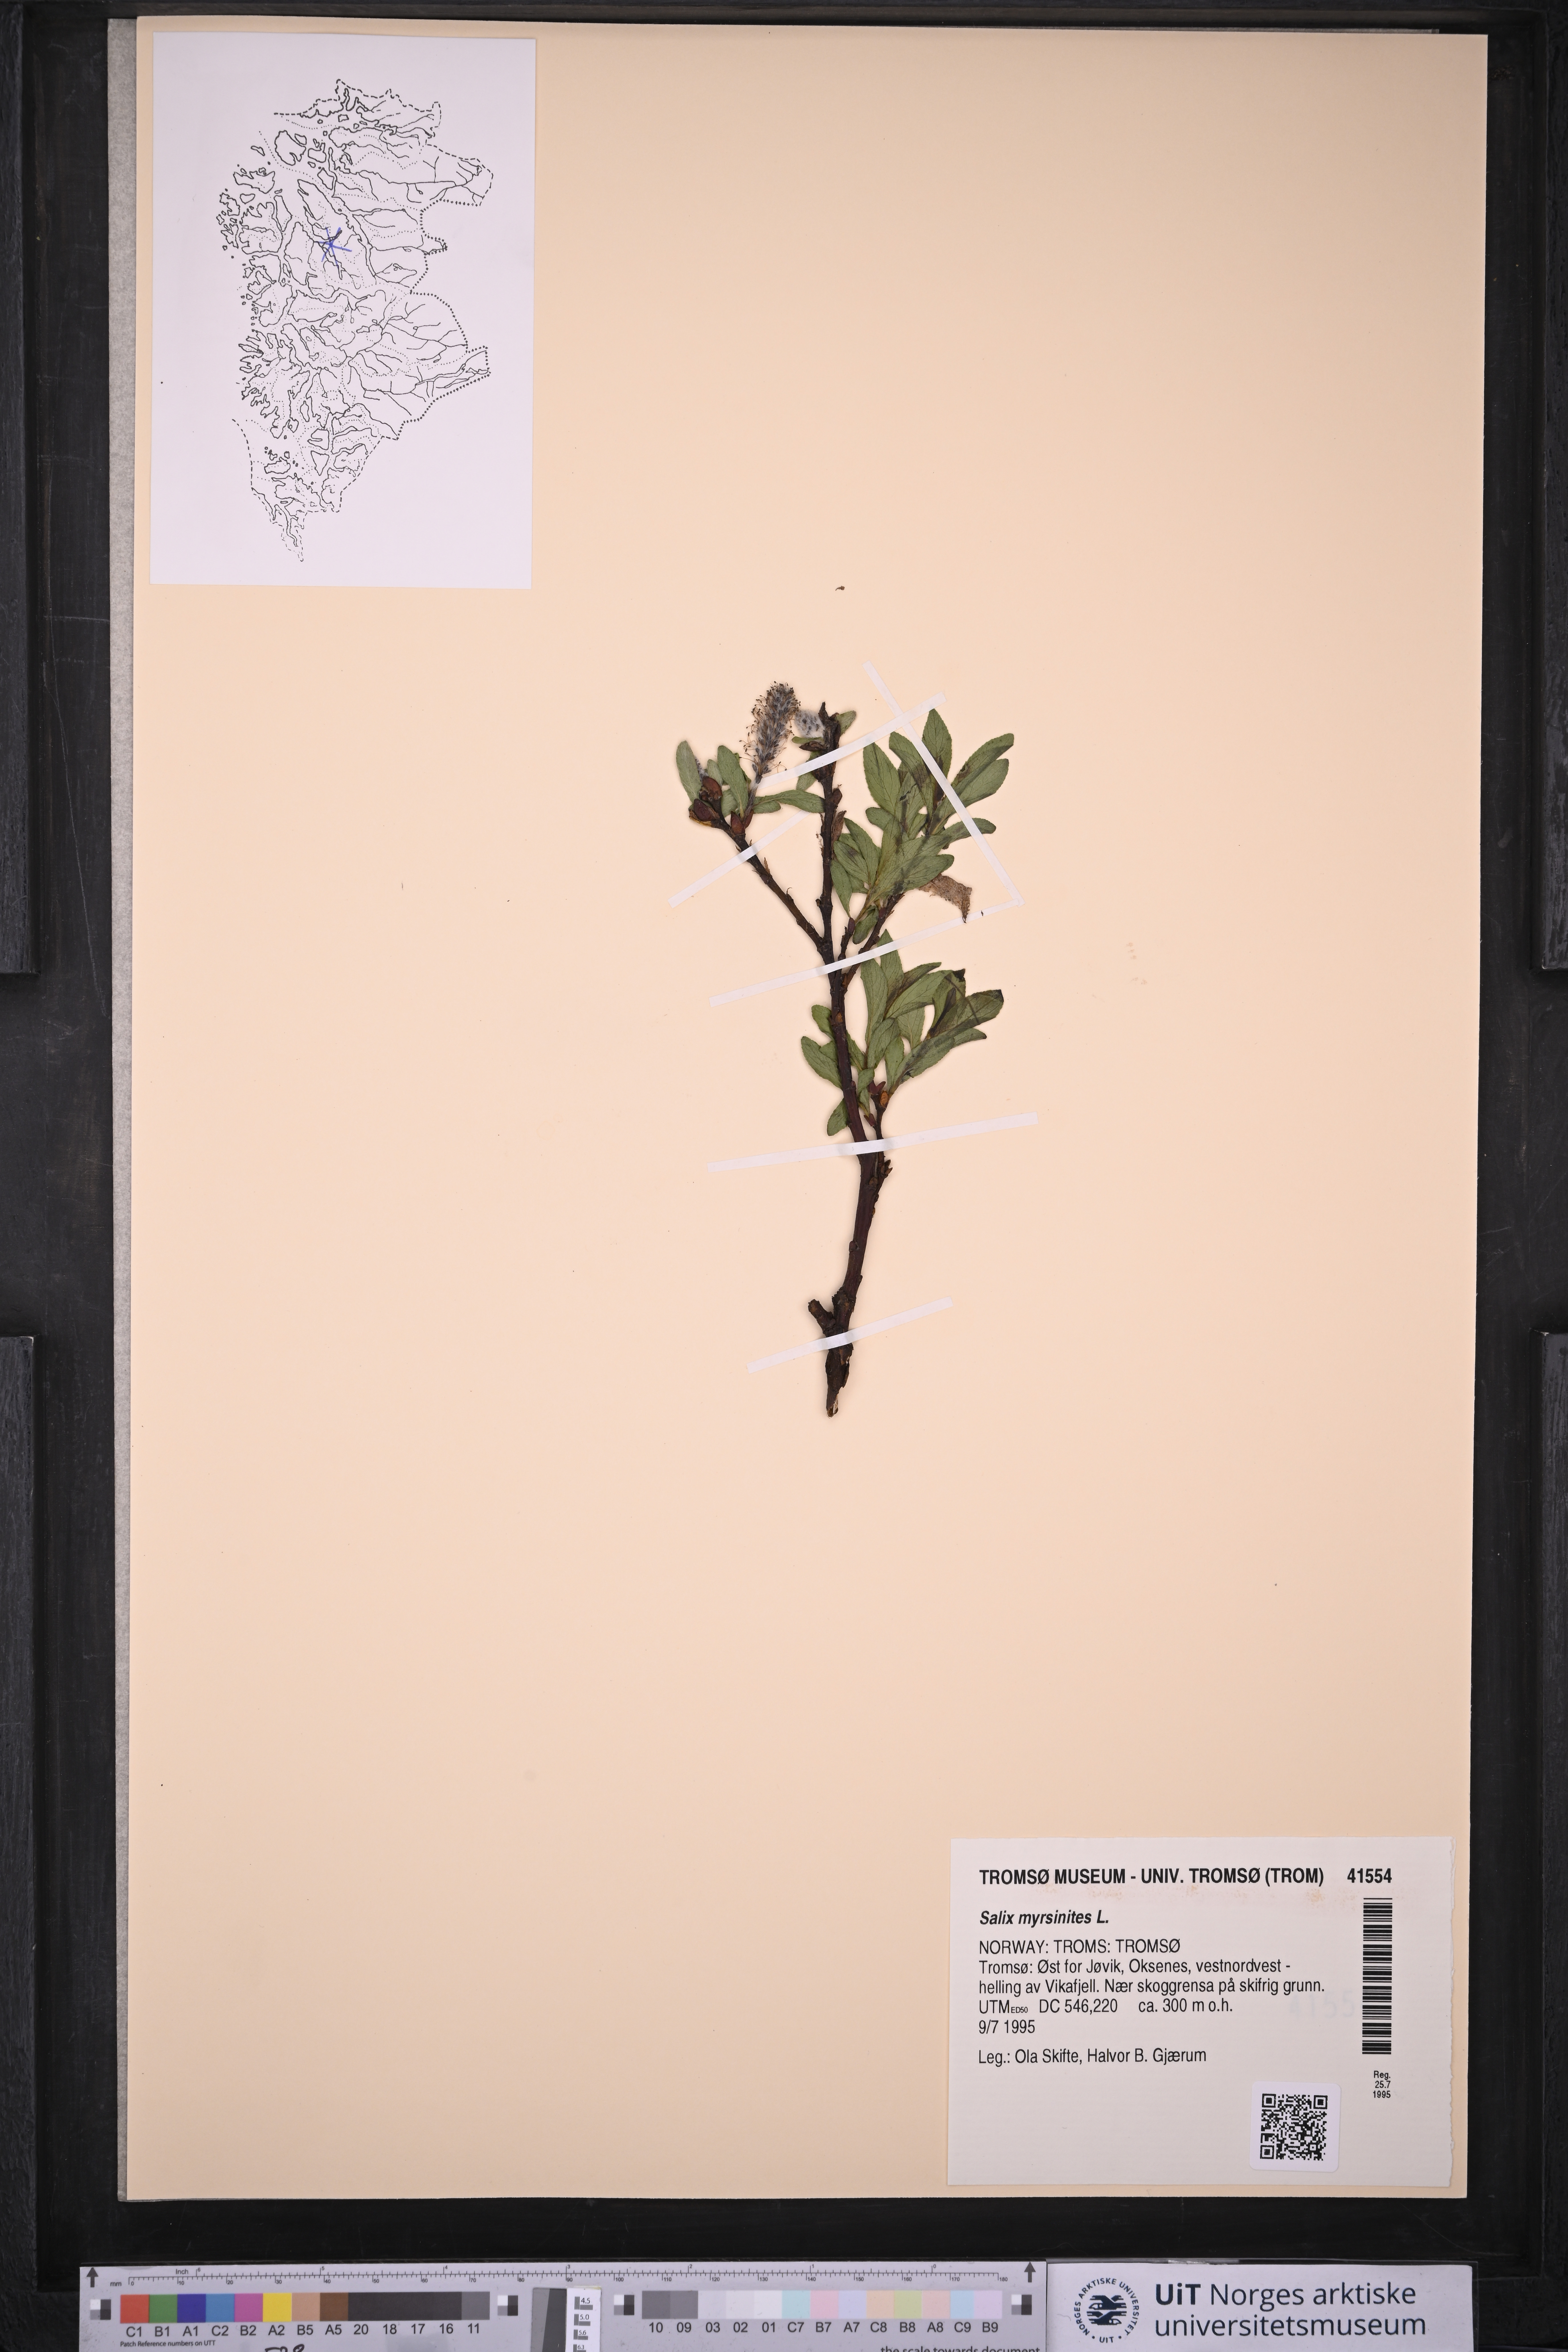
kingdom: Plantae
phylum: Tracheophyta
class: Magnoliopsida
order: Malpighiales
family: Salicaceae
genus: Salix
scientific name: Salix myrsinites
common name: Myrtle willow
